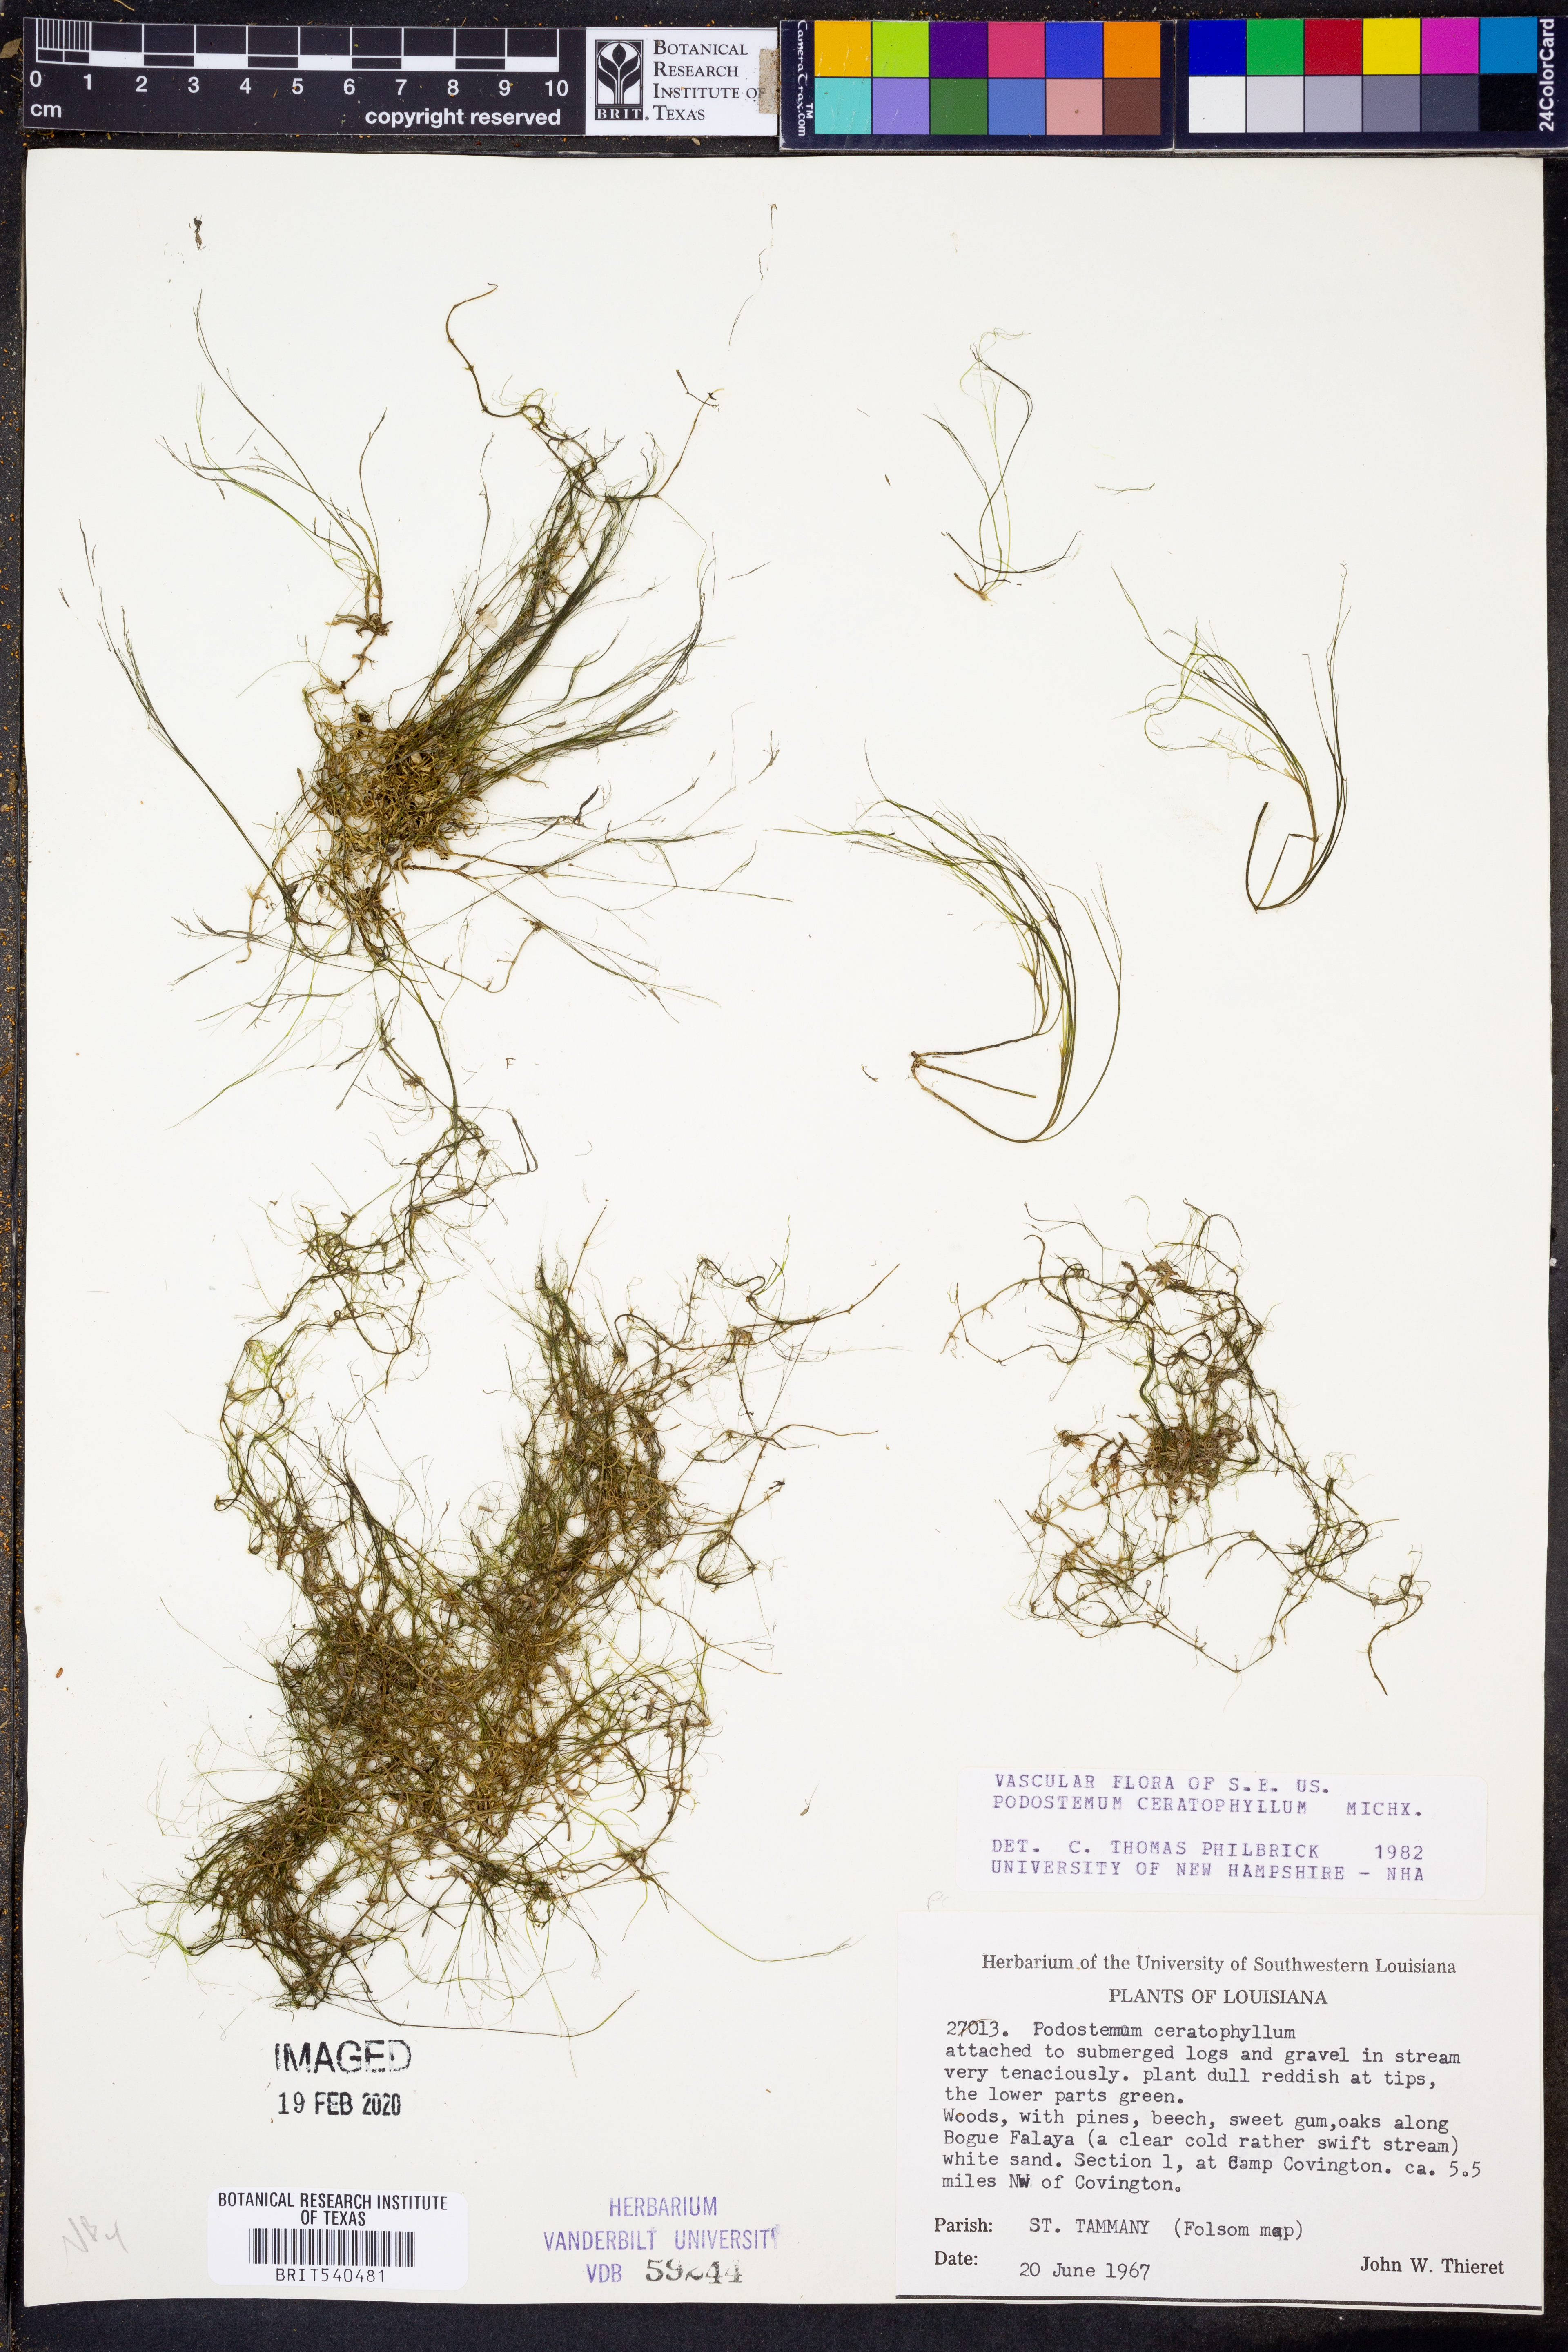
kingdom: Plantae
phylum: Tracheophyta
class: Magnoliopsida
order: Malpighiales
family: Podostemaceae
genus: Podostemum
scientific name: Podostemum ceratophyllum
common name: Horn-leaved riverweed
